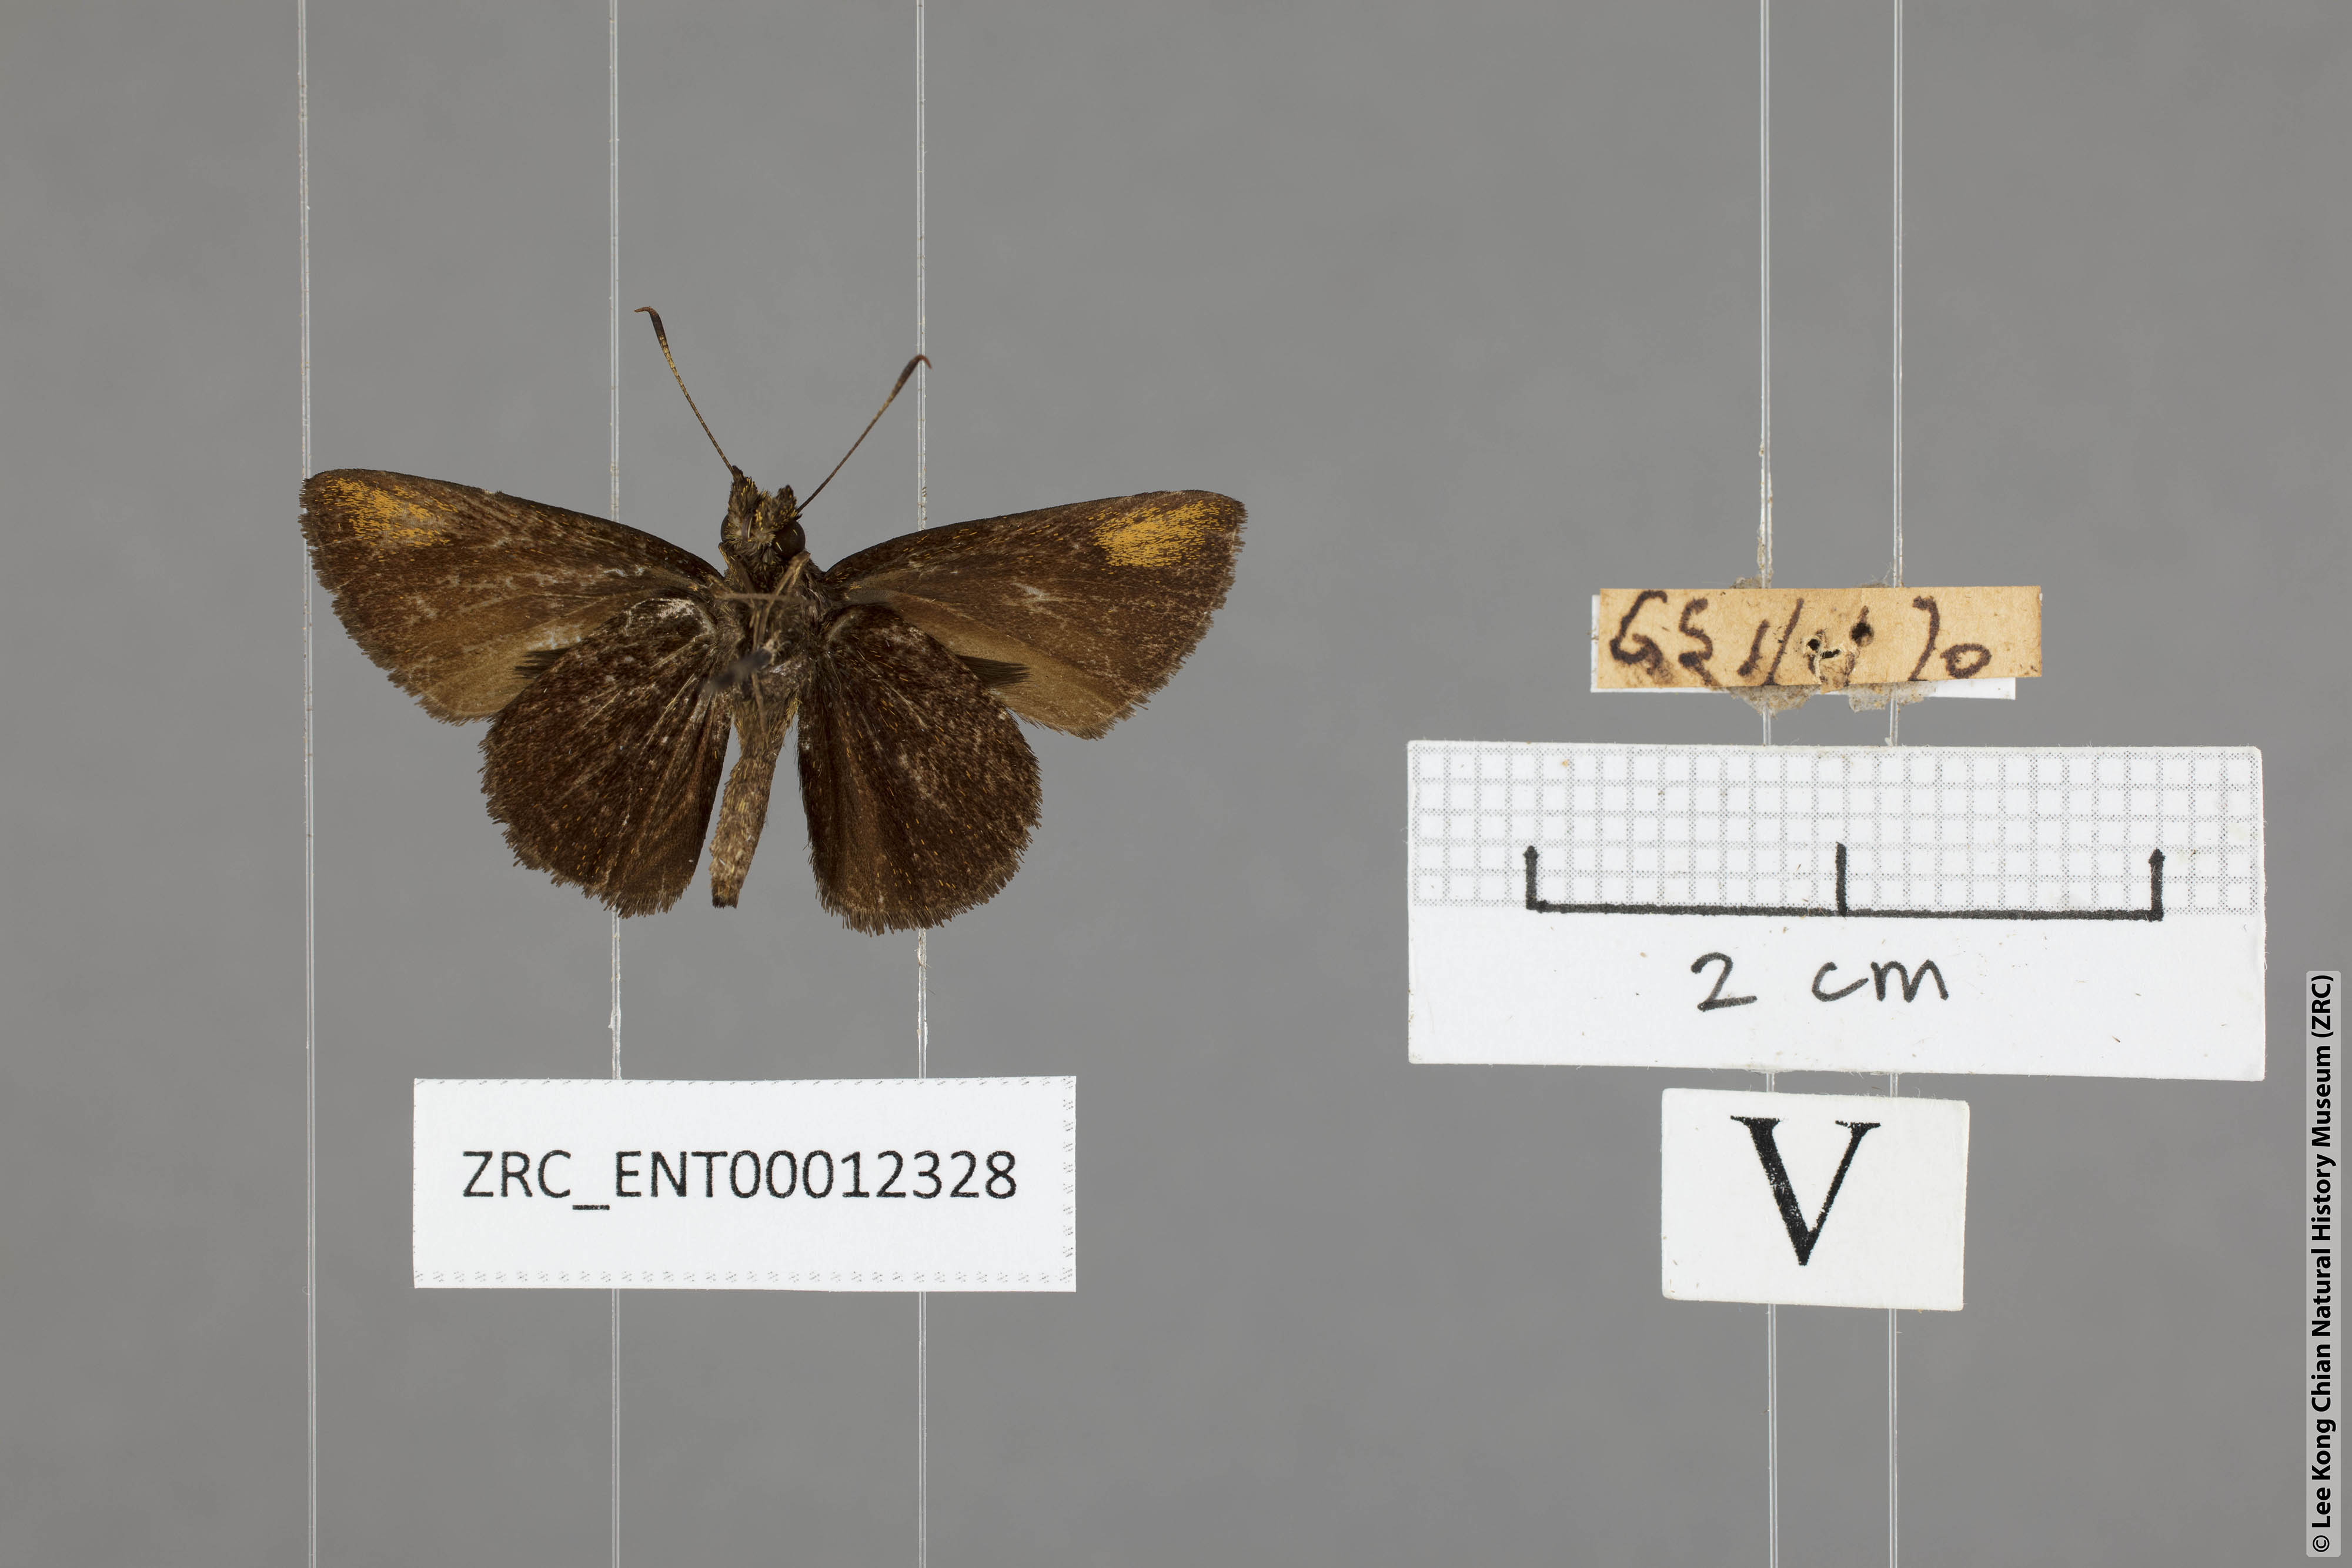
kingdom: Animalia
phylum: Arthropoda
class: Insecta
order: Lepidoptera
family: Hesperiidae
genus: Arnetta
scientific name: Arnetta verones
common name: Sumatran bob
